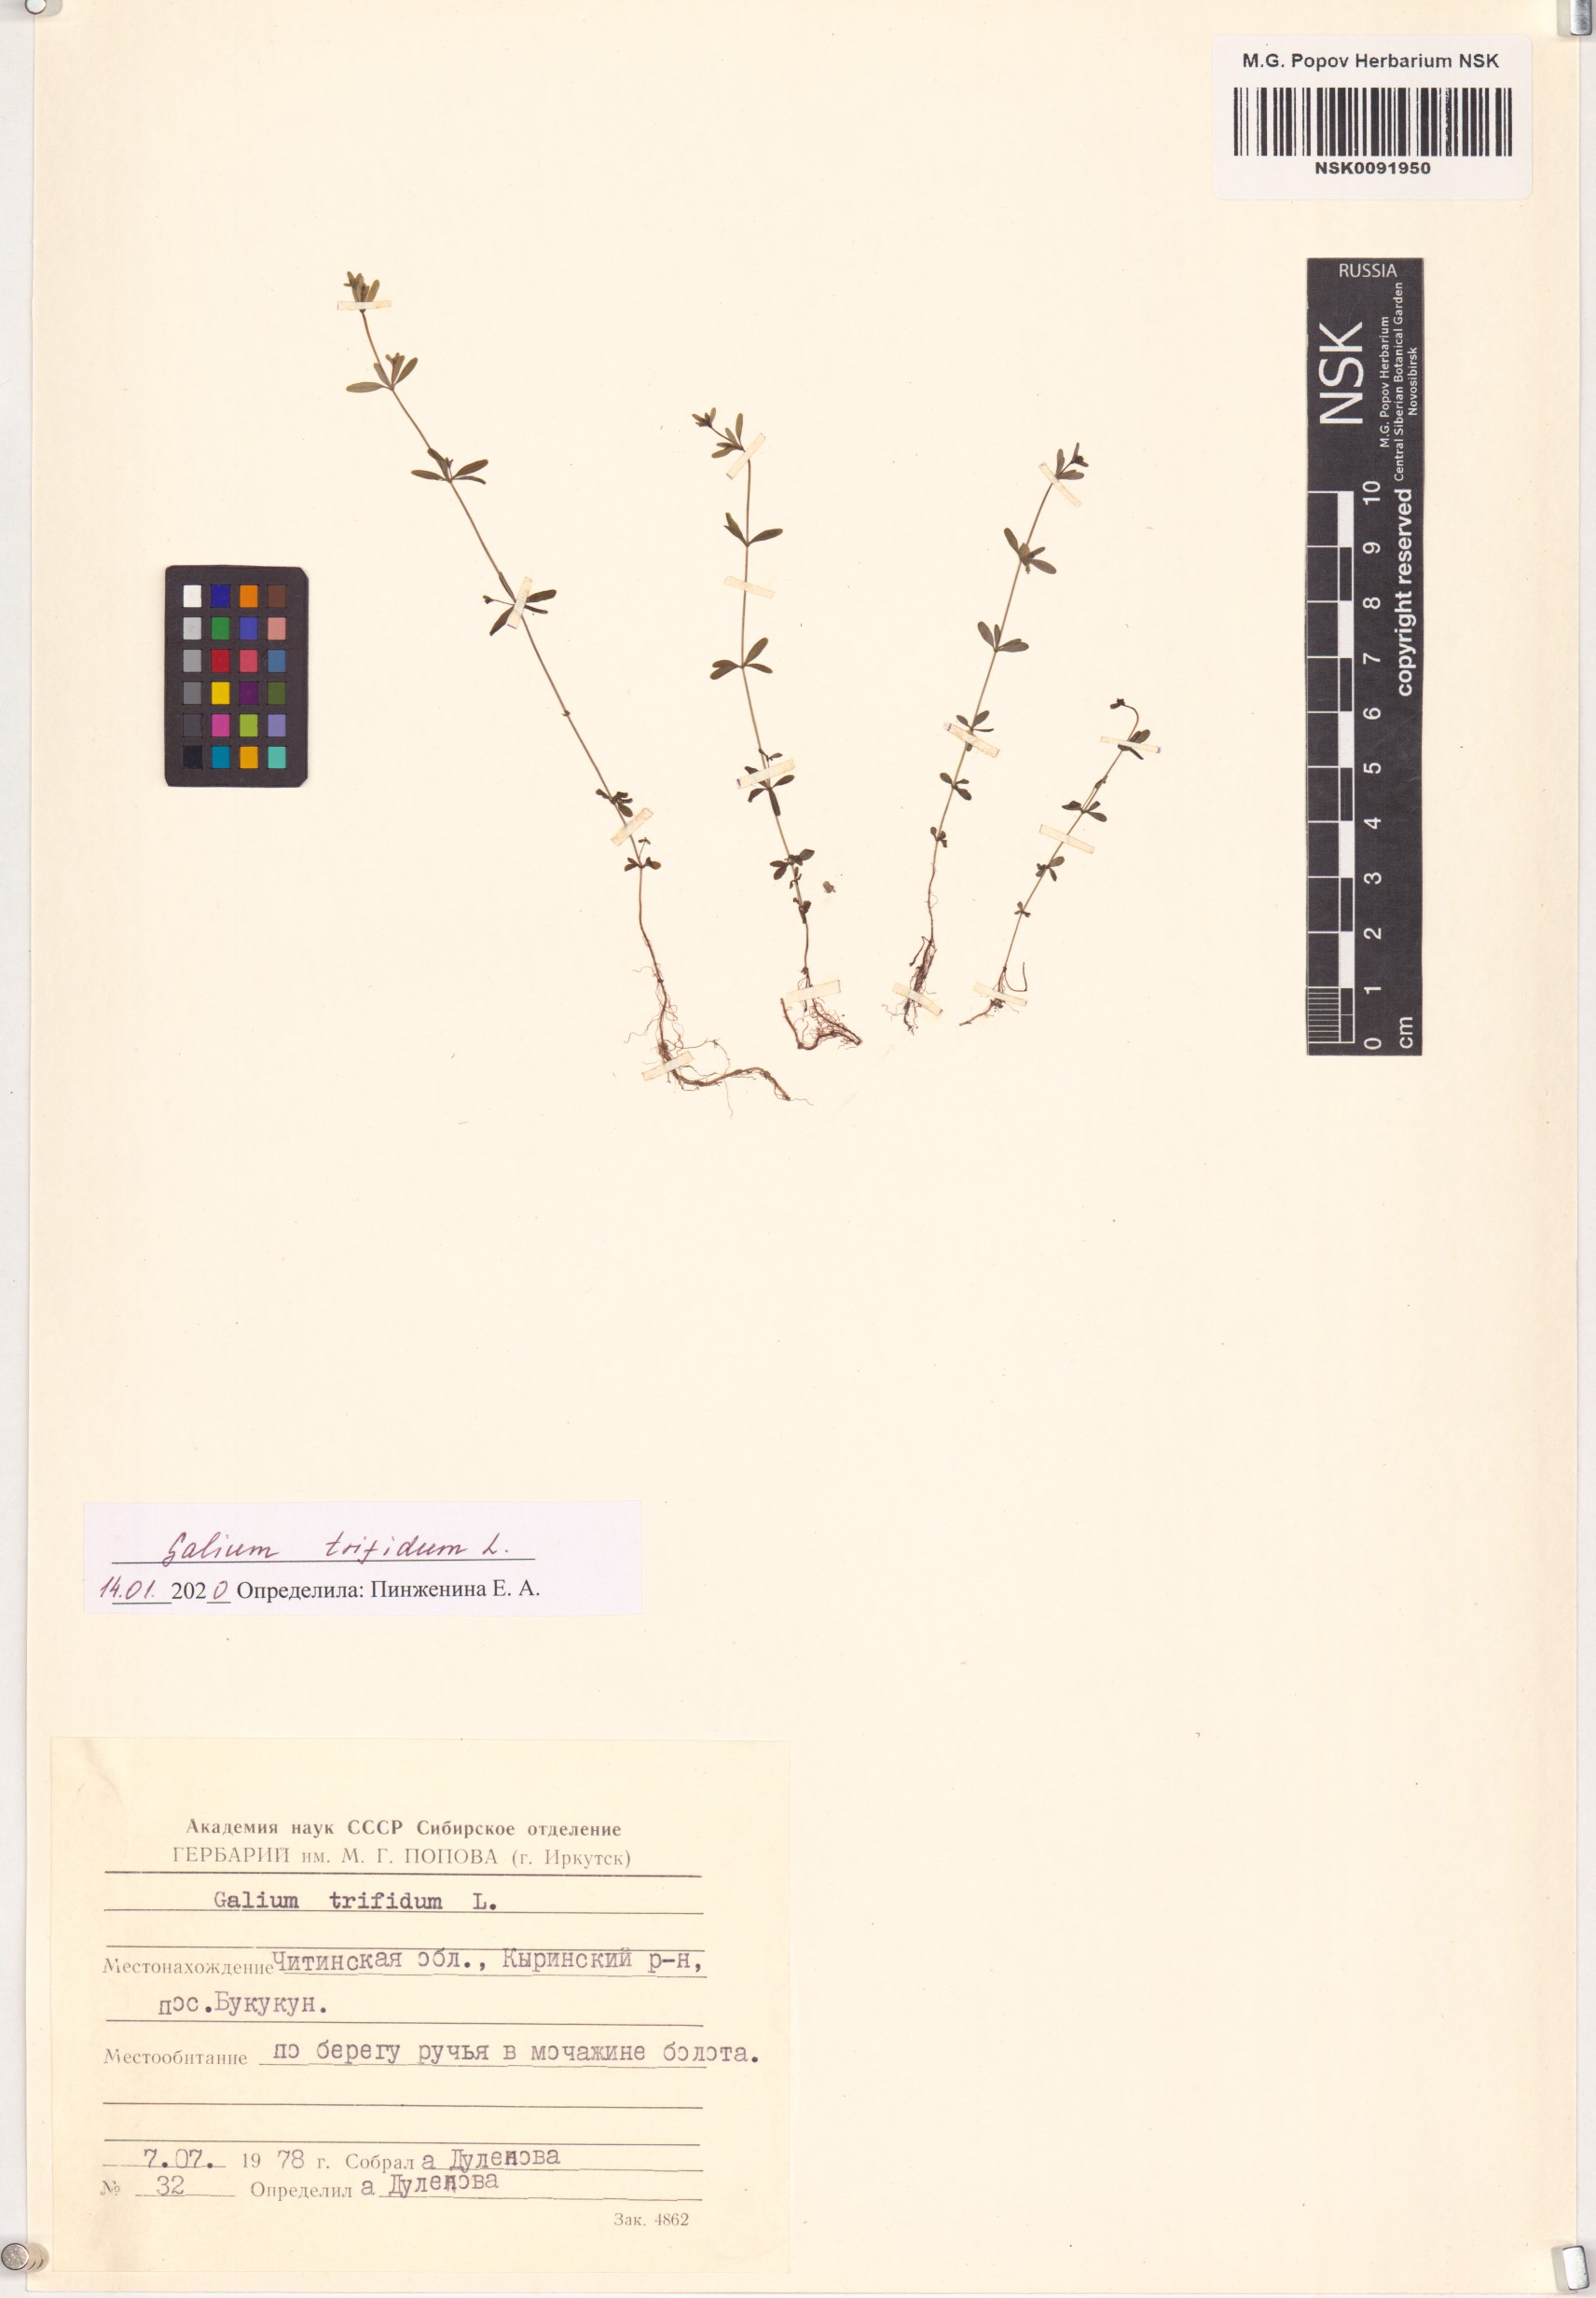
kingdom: Plantae
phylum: Tracheophyta
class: Magnoliopsida
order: Gentianales
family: Rubiaceae
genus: Galium
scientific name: Galium trifidum
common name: Small bedstraw
